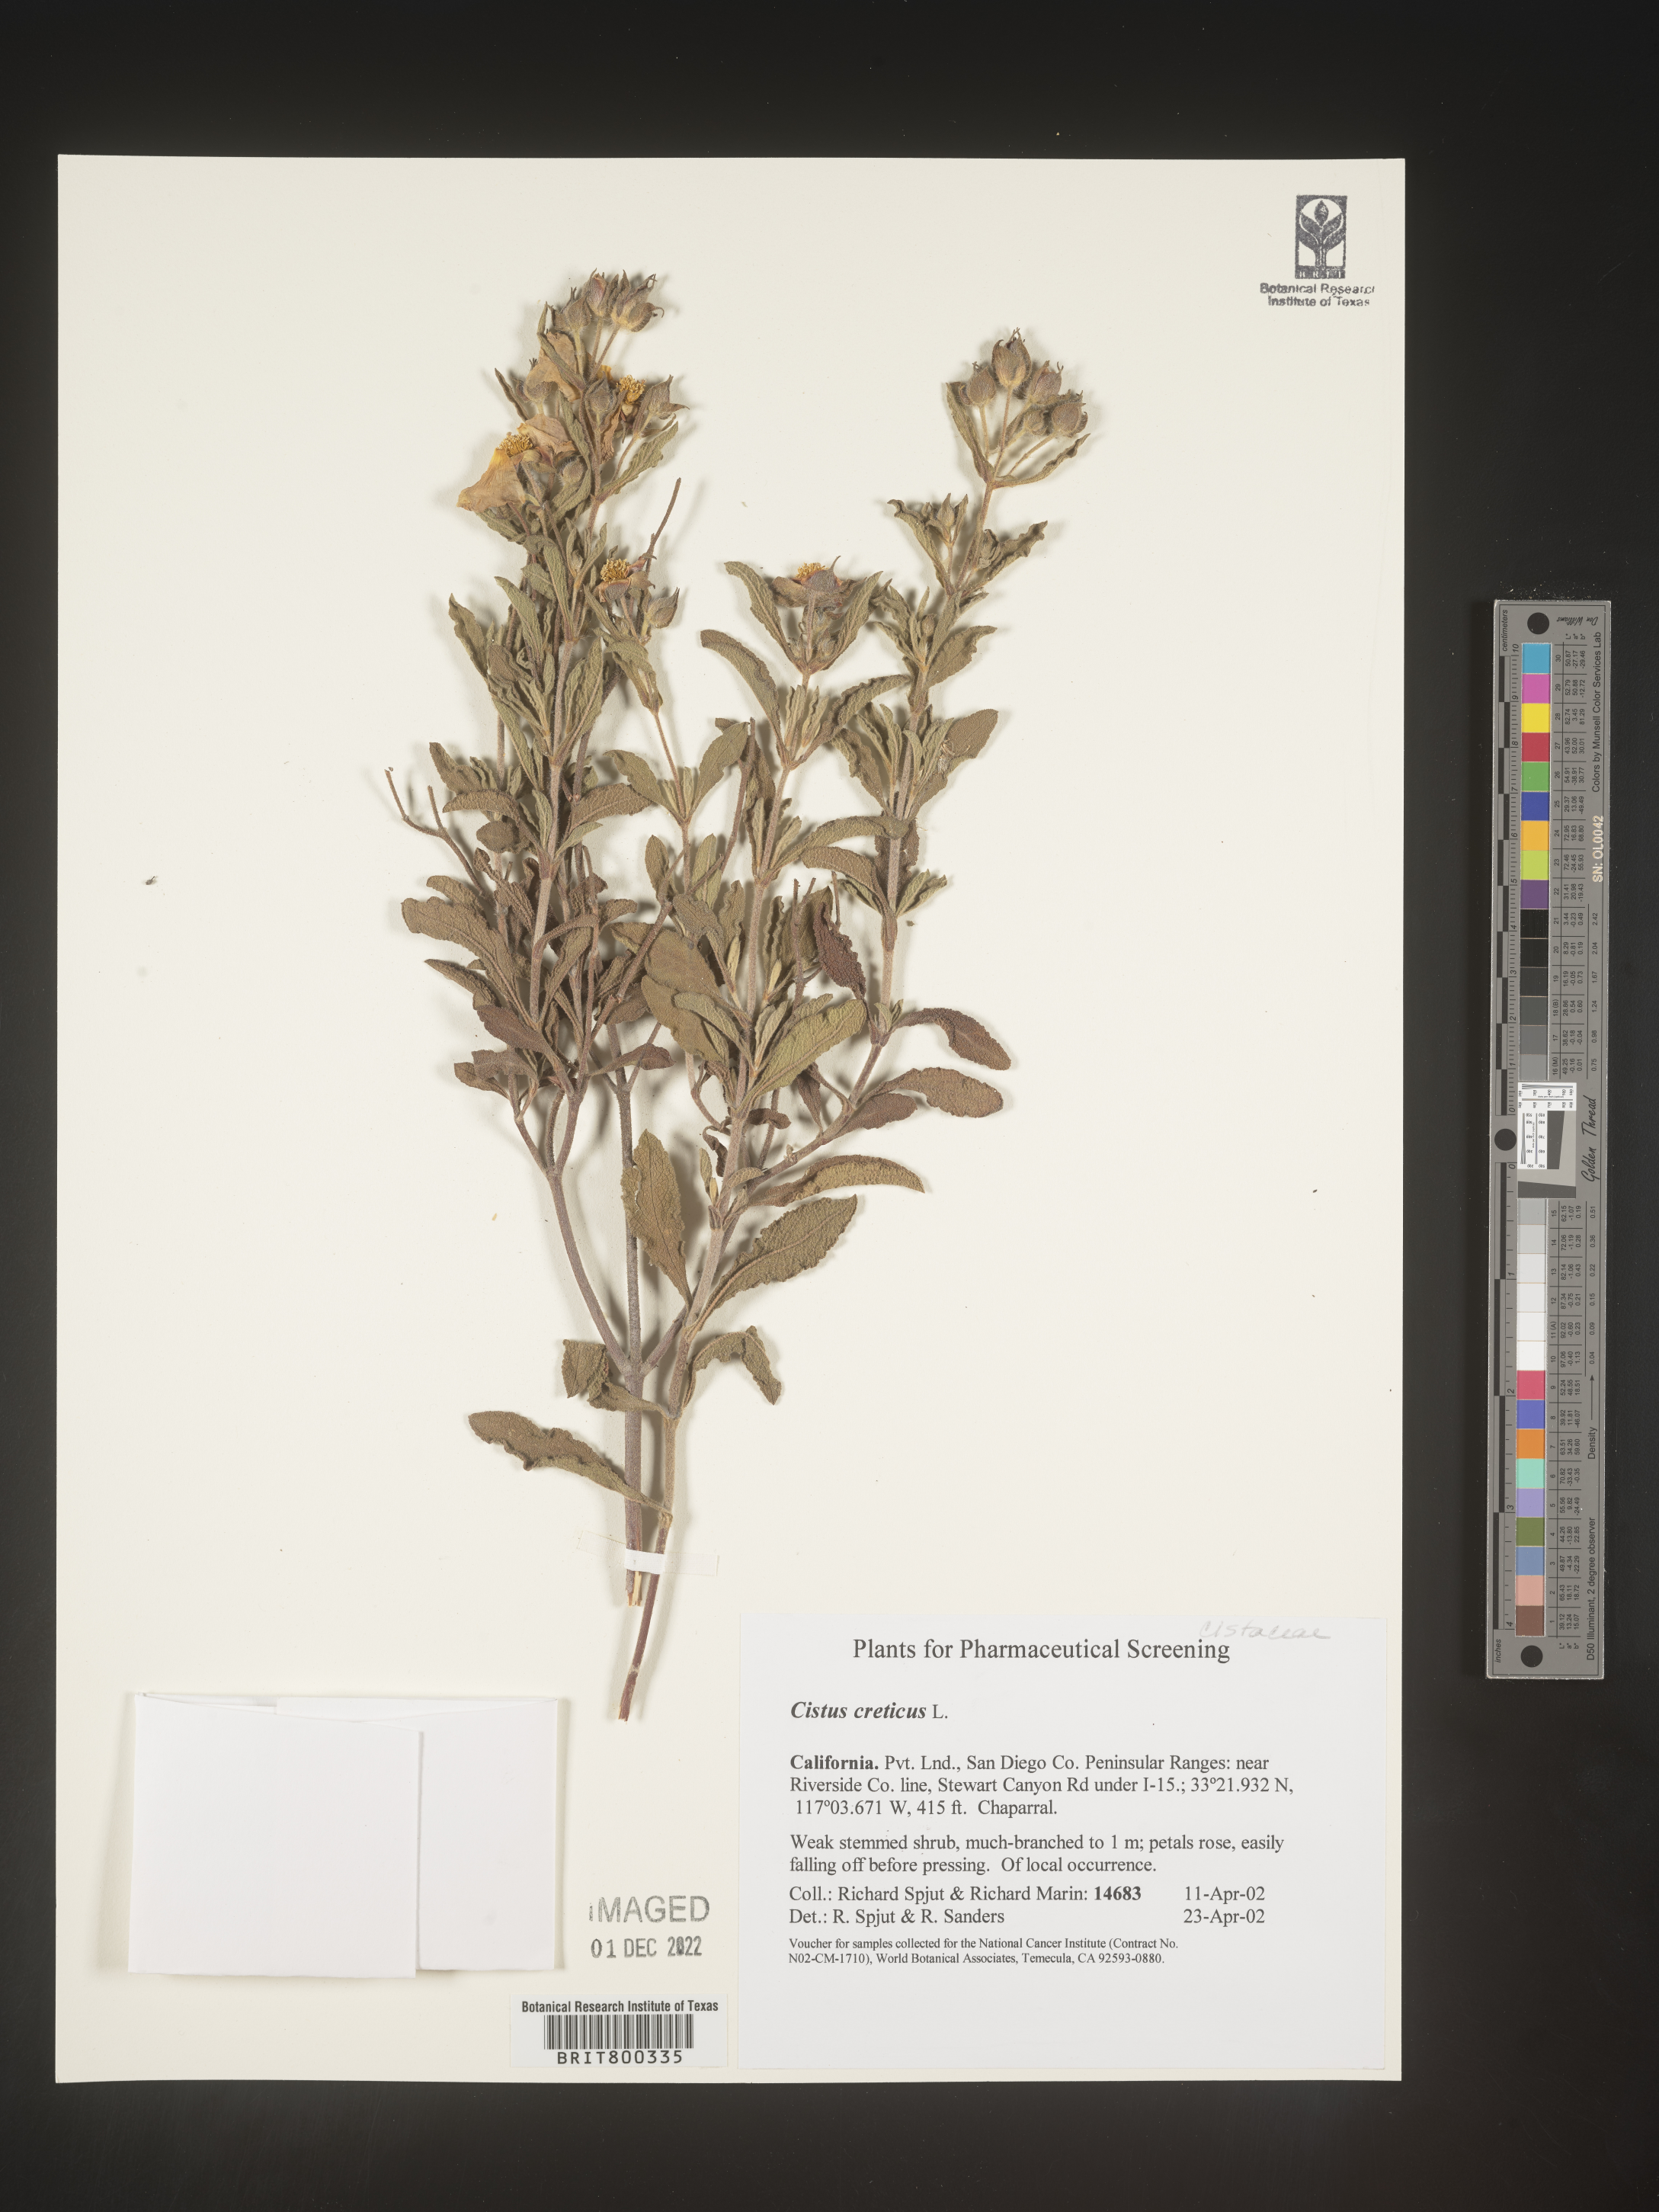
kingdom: Plantae
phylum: Tracheophyta
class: Magnoliopsida
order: Malvales
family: Cistaceae
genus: Cistus
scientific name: Cistus
